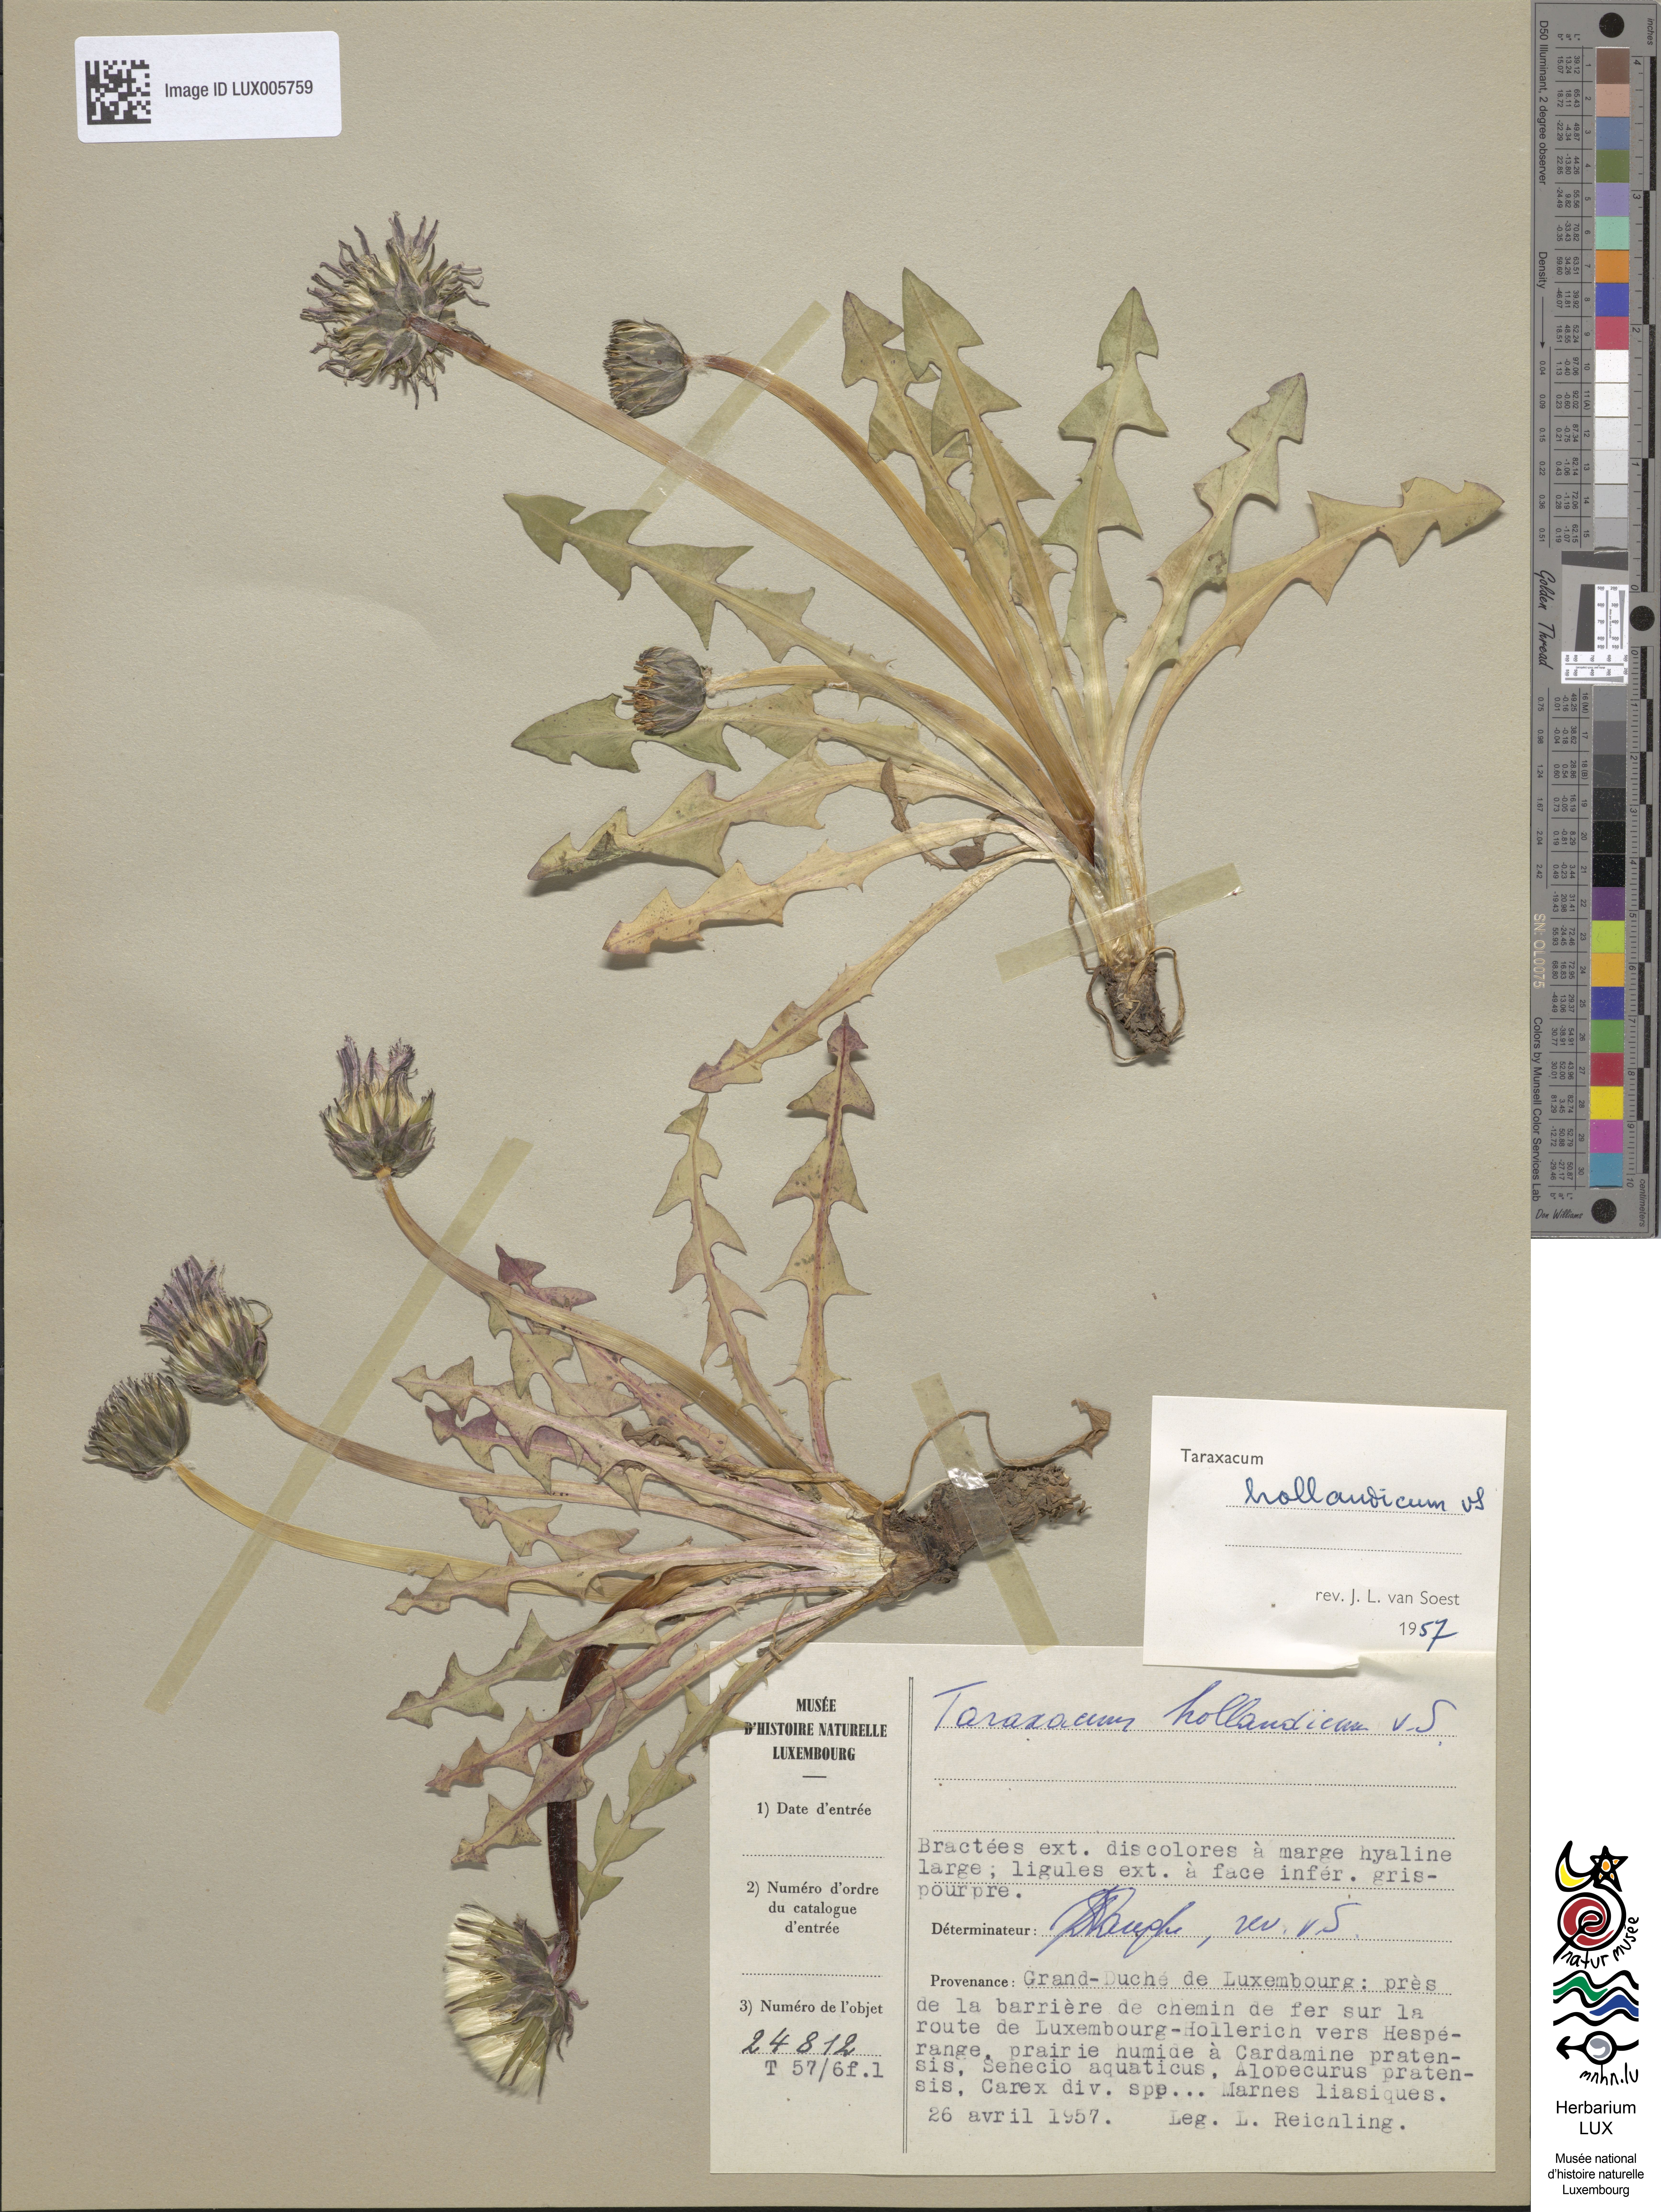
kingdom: Plantae
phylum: Tracheophyta
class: Magnoliopsida
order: Asterales
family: Asteraceae
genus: Taraxacum
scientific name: Taraxacum hollandicum
